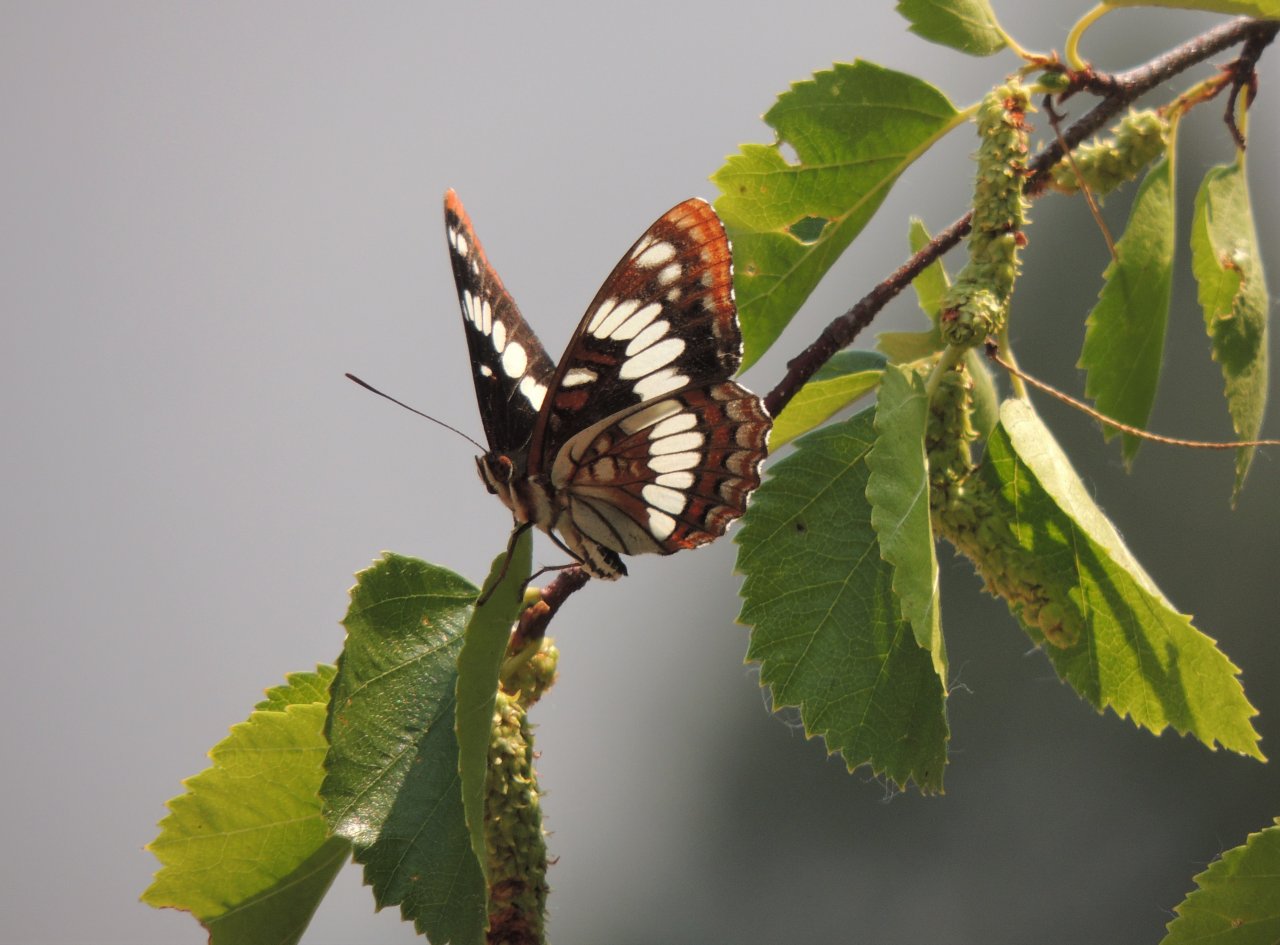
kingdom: Animalia
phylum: Arthropoda
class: Insecta
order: Lepidoptera
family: Nymphalidae
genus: Limenitis
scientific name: Limenitis lorquini
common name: Lorquin's Admiral
